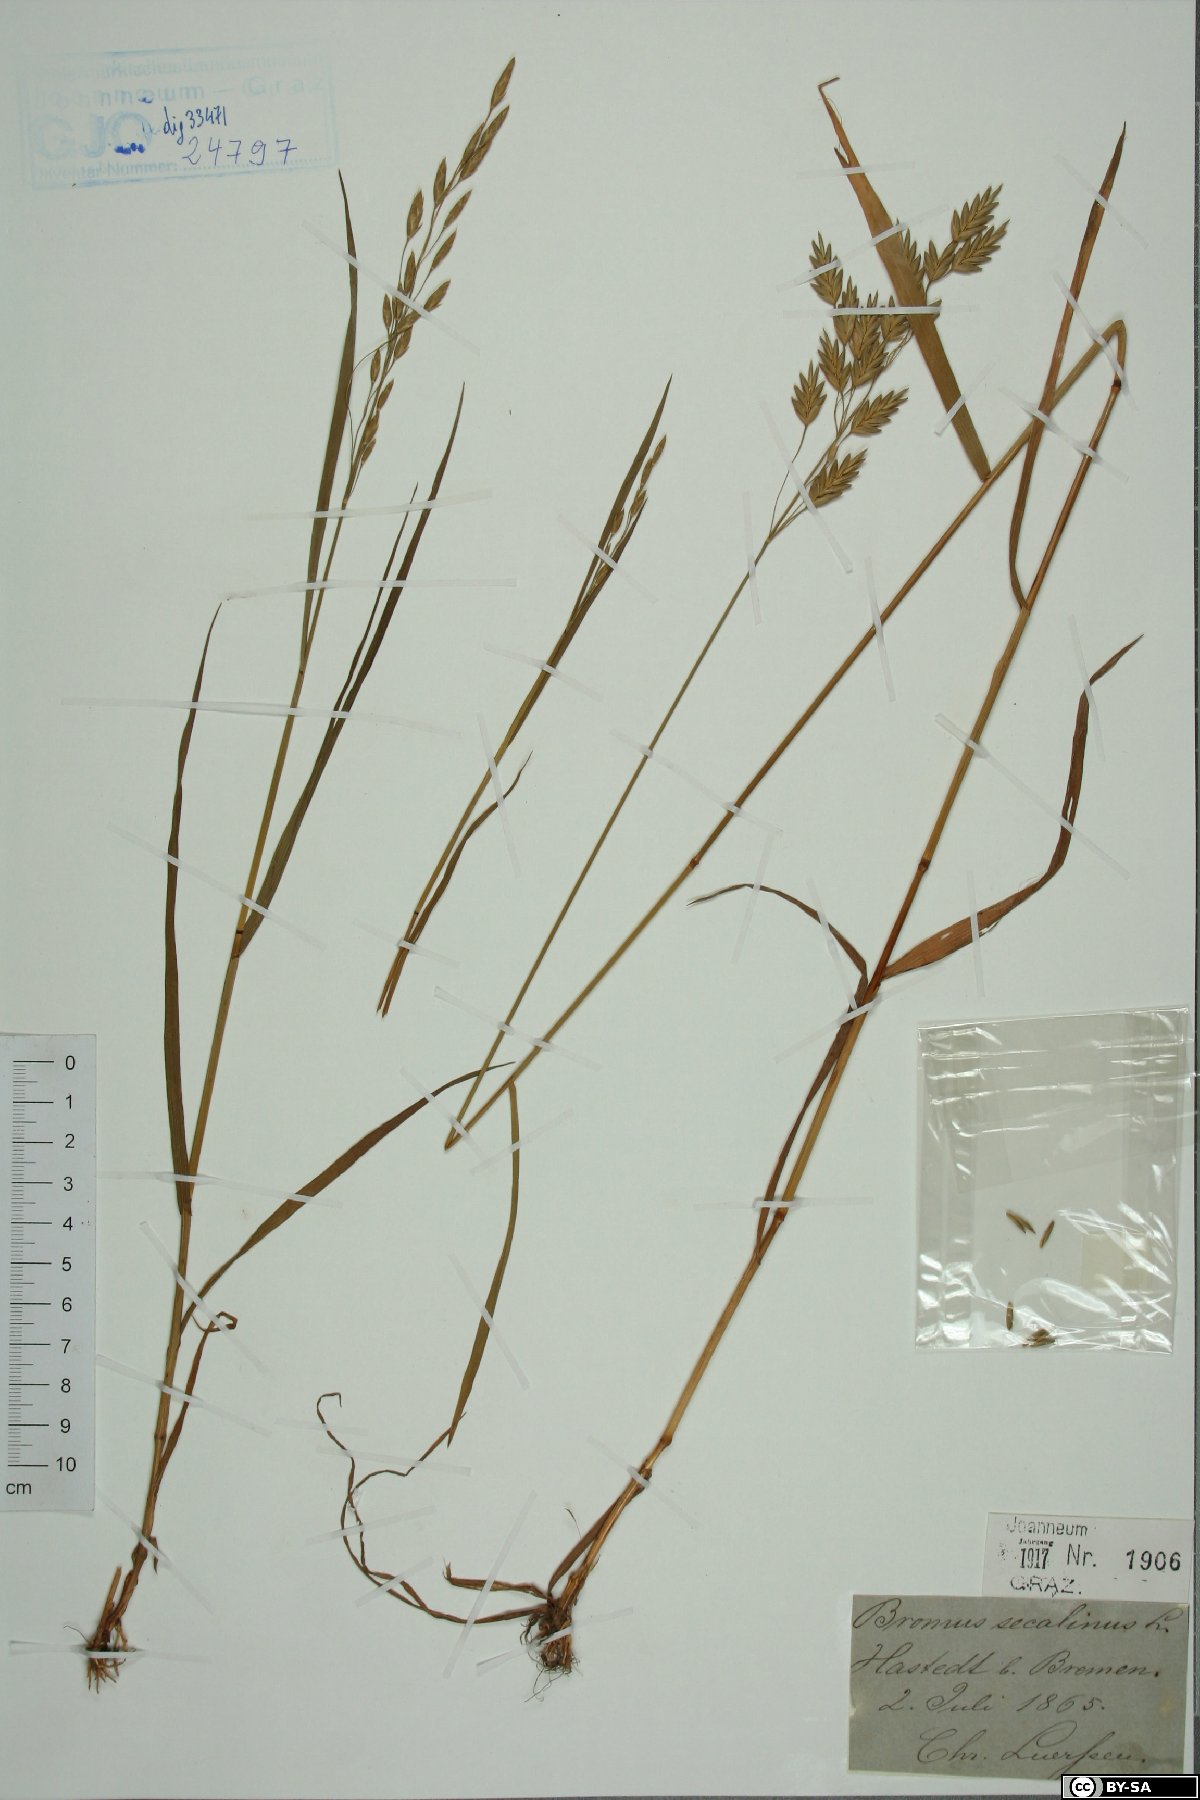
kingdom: Plantae
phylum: Tracheophyta
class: Liliopsida
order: Poales
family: Poaceae
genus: Bromus
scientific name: Bromus secalinus
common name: Rye brome
